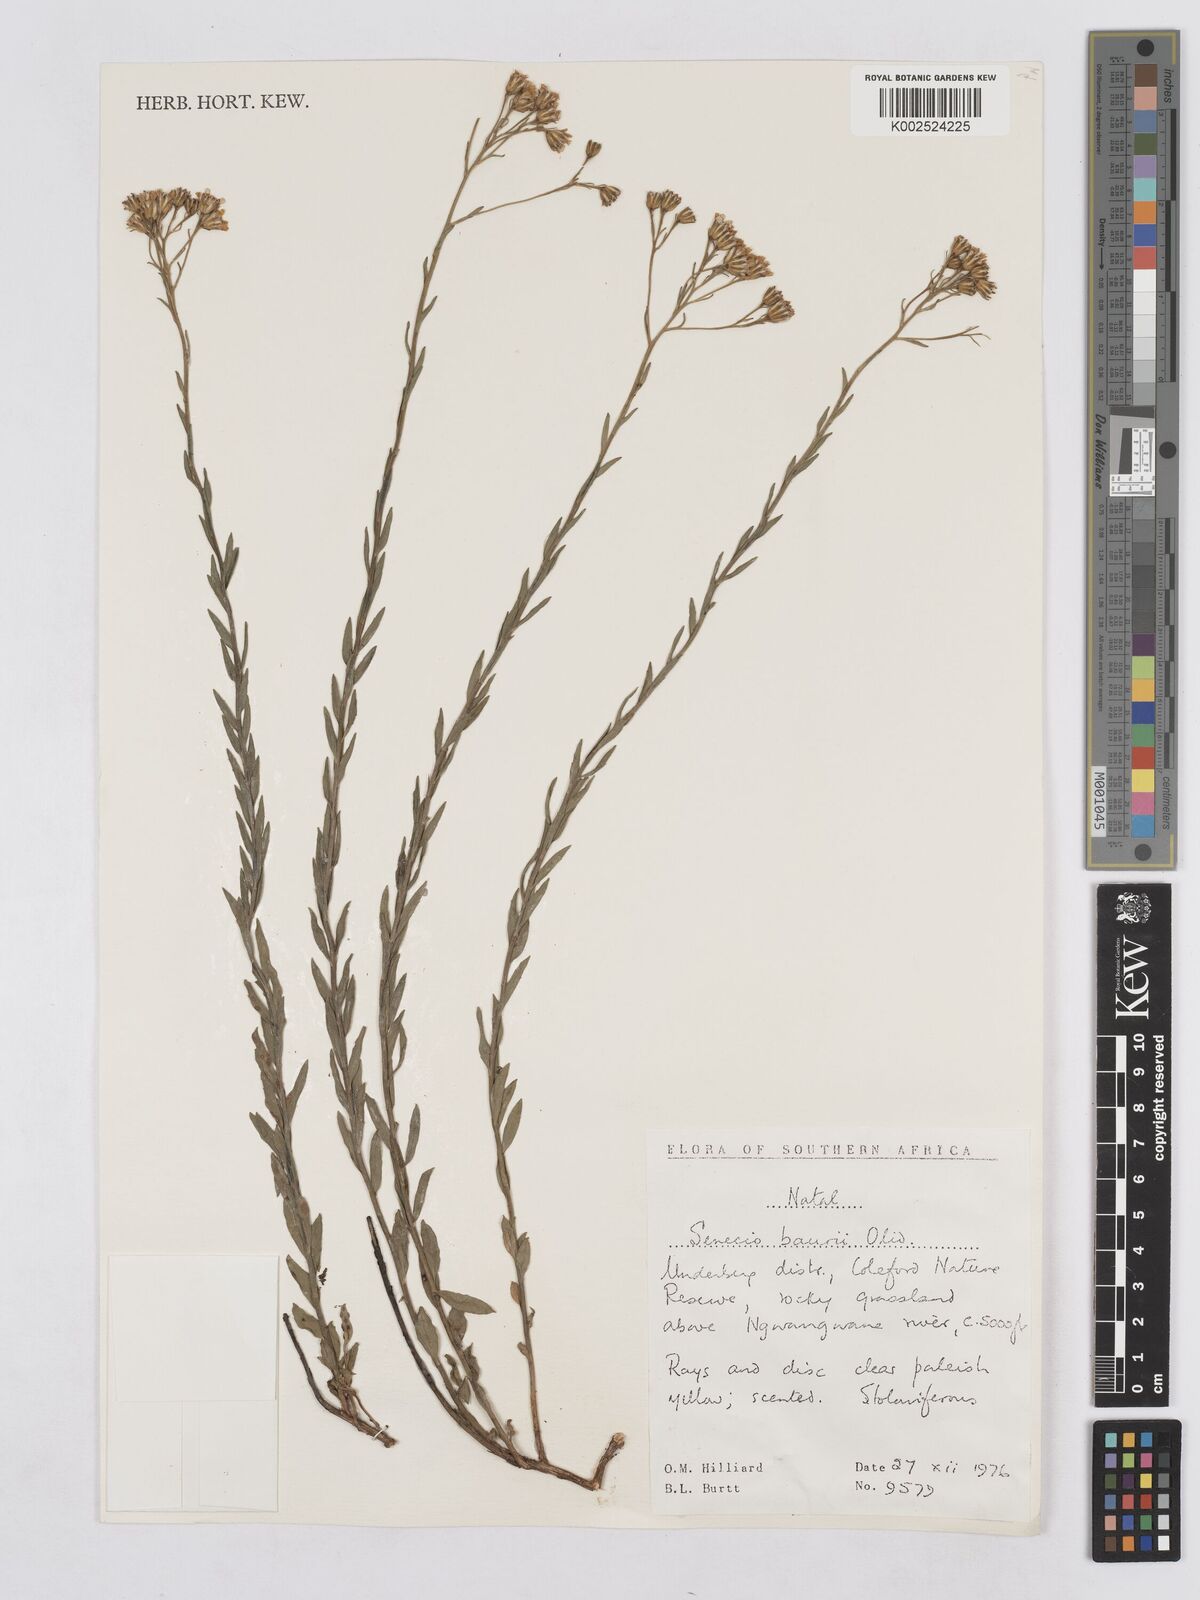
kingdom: Plantae
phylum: Tracheophyta
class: Magnoliopsida
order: Asterales
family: Asteraceae
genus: Senecio
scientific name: Senecio baurii
